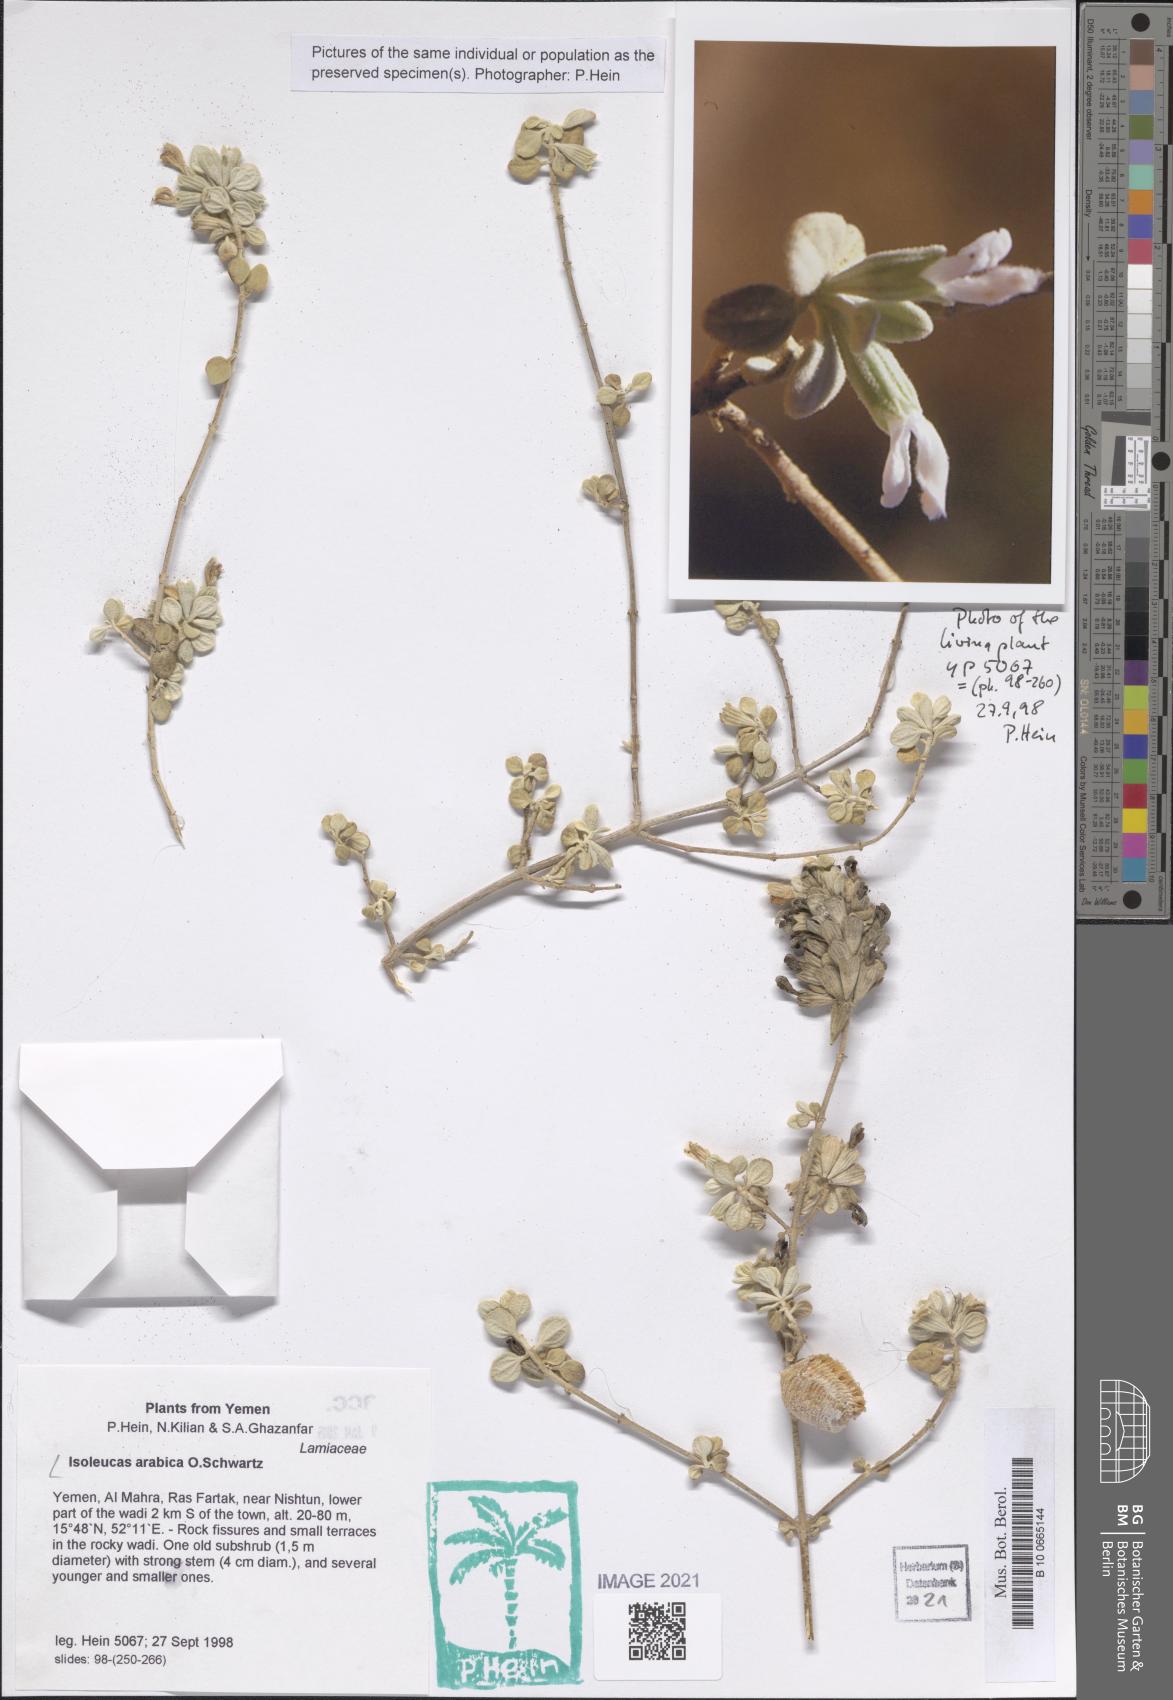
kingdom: Plantae
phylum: Tracheophyta
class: Magnoliopsida
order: Lamiales
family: Lamiaceae
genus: Isoleucas
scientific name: Isoleucas arabica
